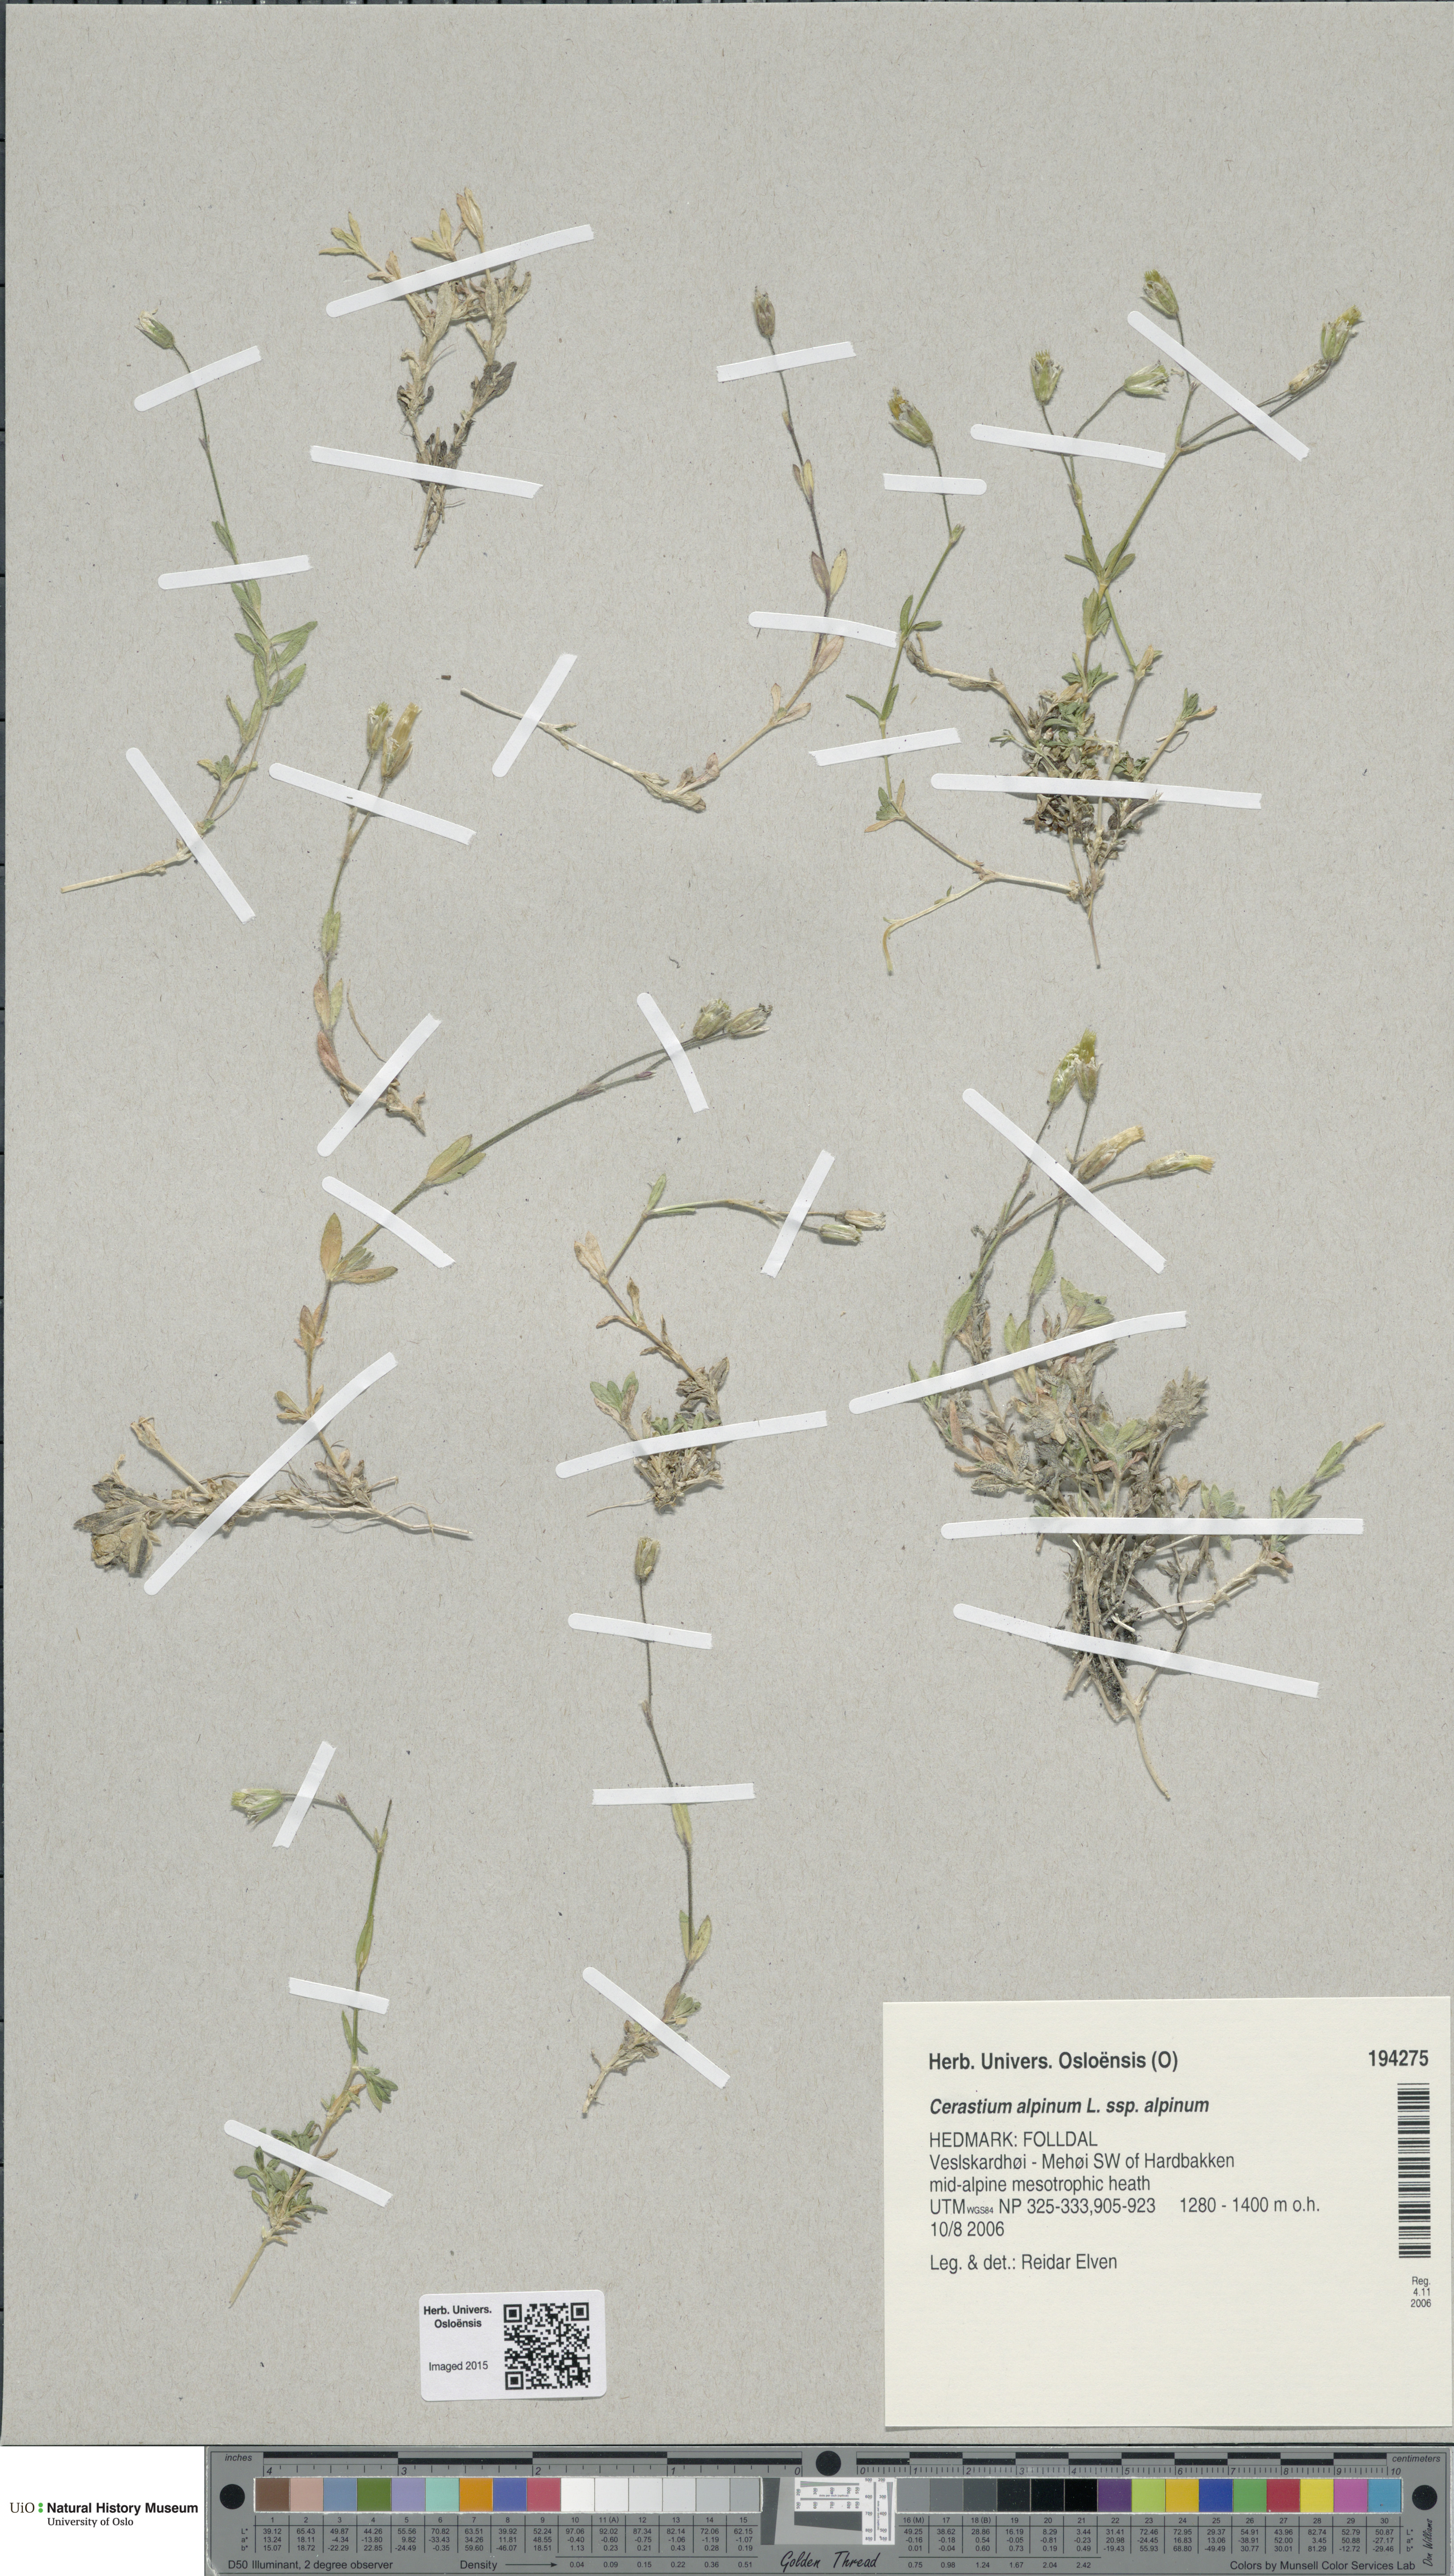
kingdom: Plantae
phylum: Tracheophyta
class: Magnoliopsida
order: Caryophyllales
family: Caryophyllaceae
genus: Cerastium
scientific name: Cerastium alpinum
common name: Alpine mouse-ear
